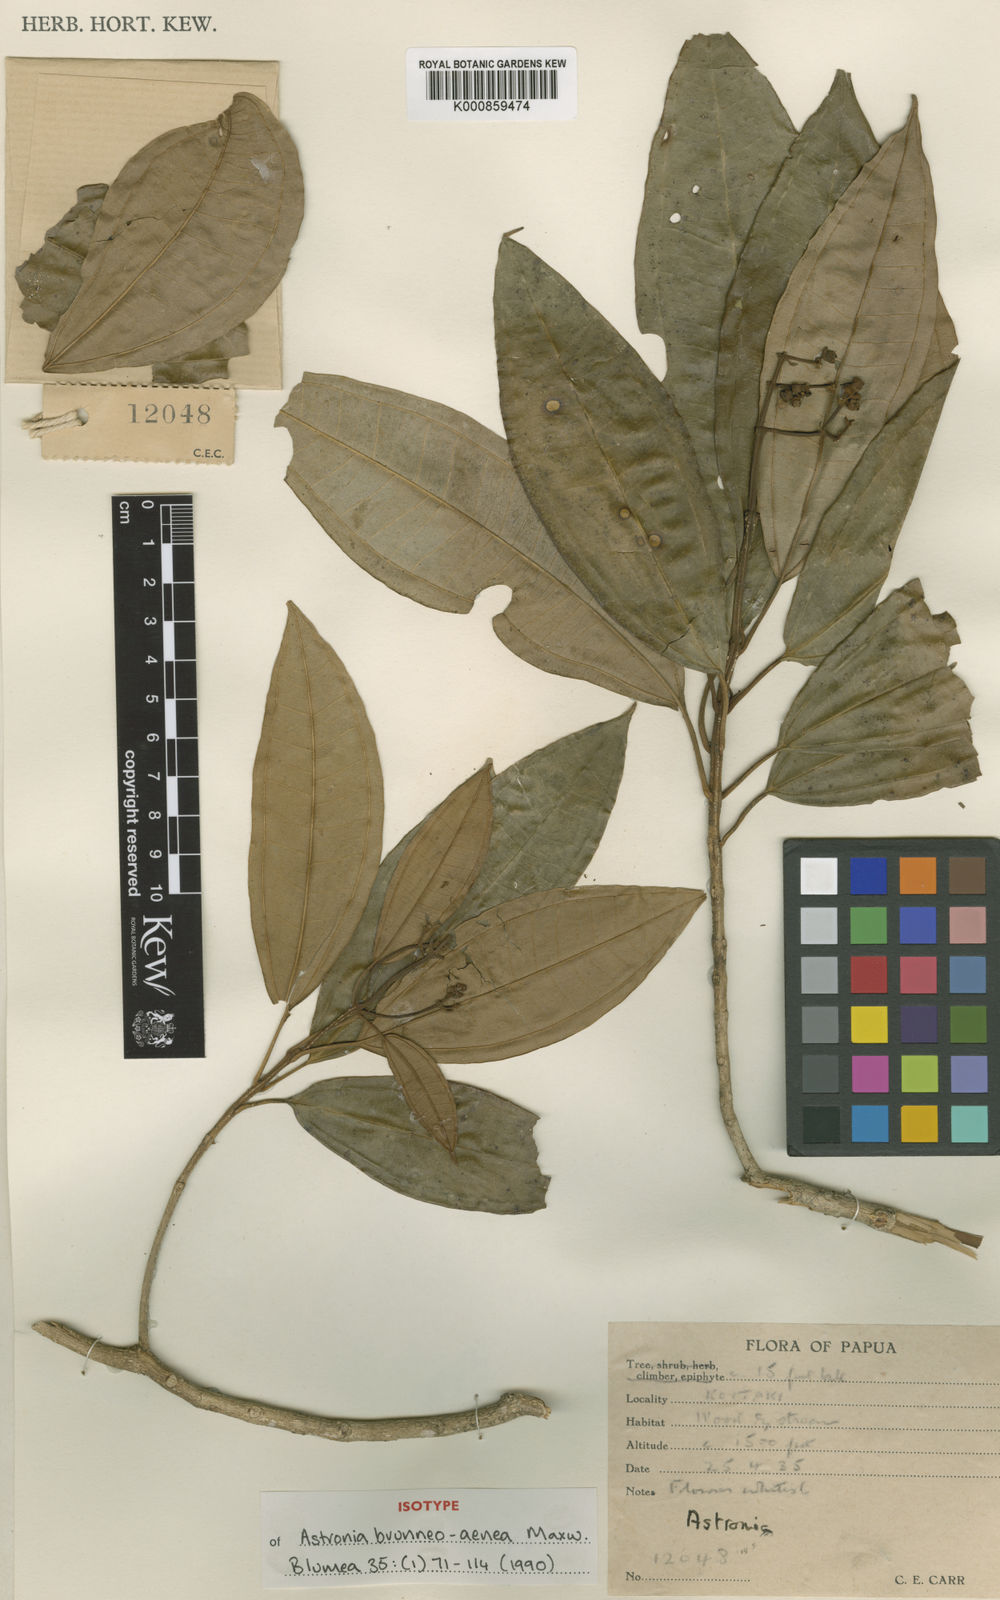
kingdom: Plantae
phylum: Tracheophyta
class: Magnoliopsida
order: Myrtales
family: Melastomataceae
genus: Astronia
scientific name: Astronia brunneoaenea
